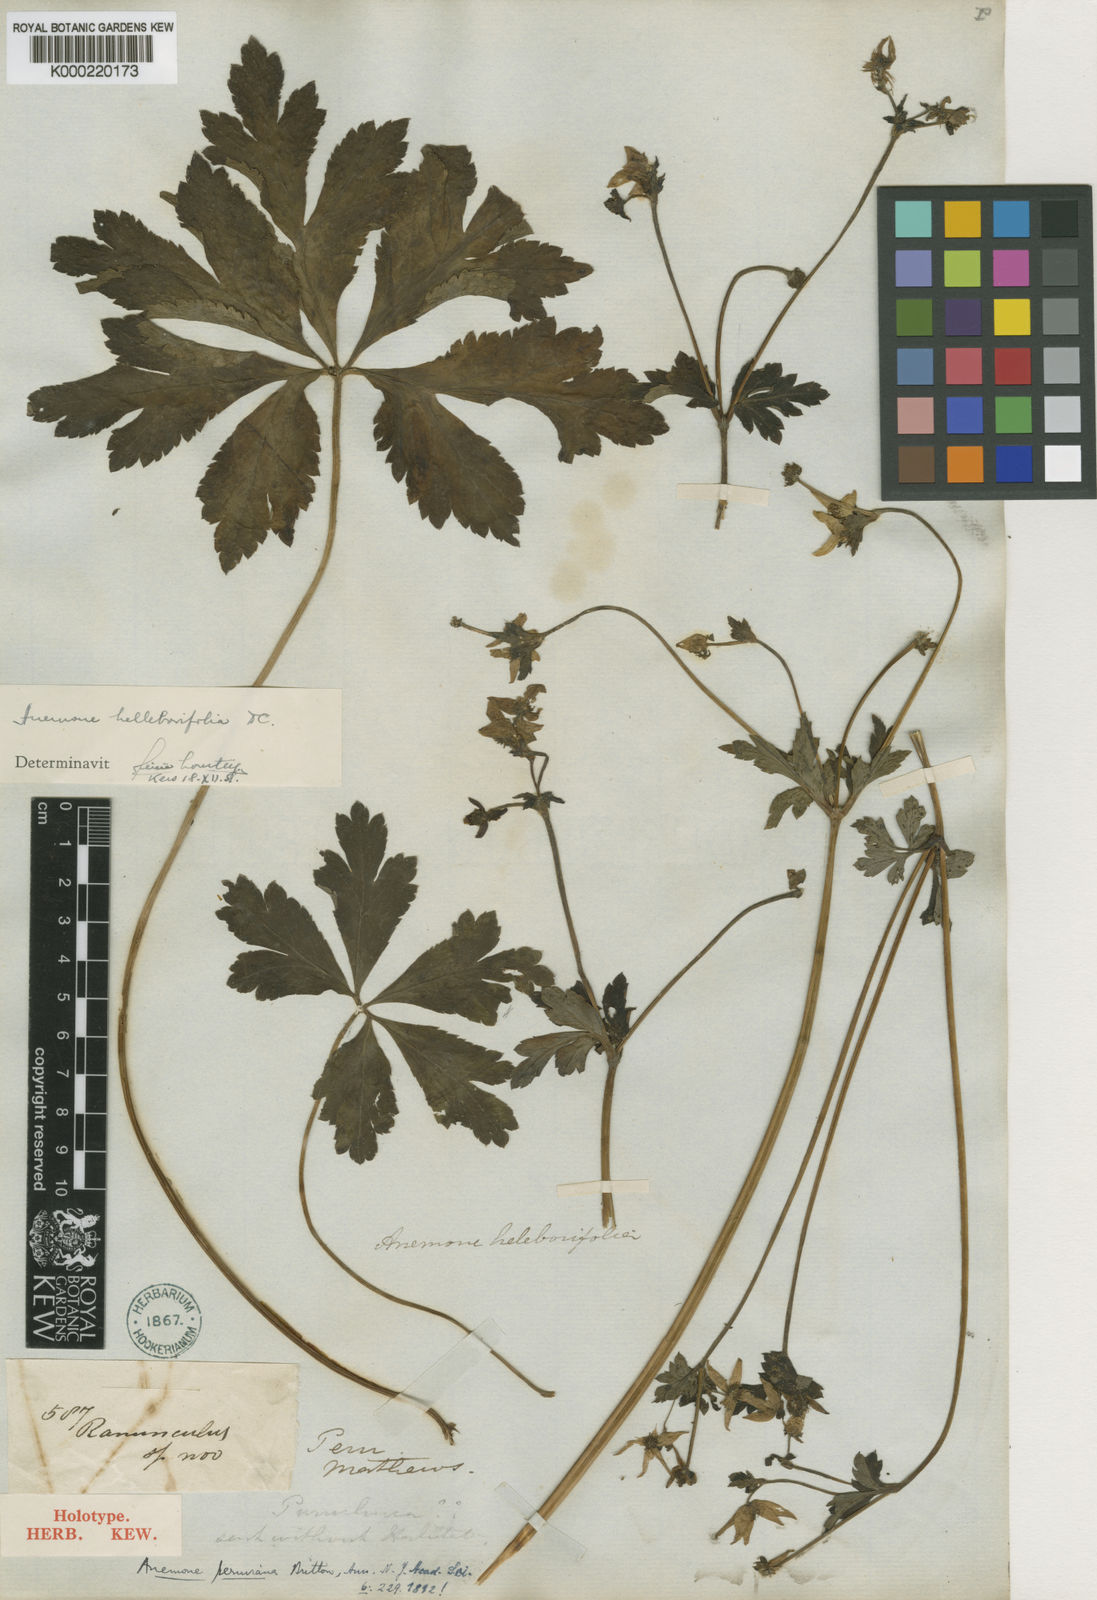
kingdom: Plantae
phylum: Tracheophyta
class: Magnoliopsida
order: Ranunculales
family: Ranunculaceae
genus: Knowltonia
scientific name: Knowltonia helleborifolia
